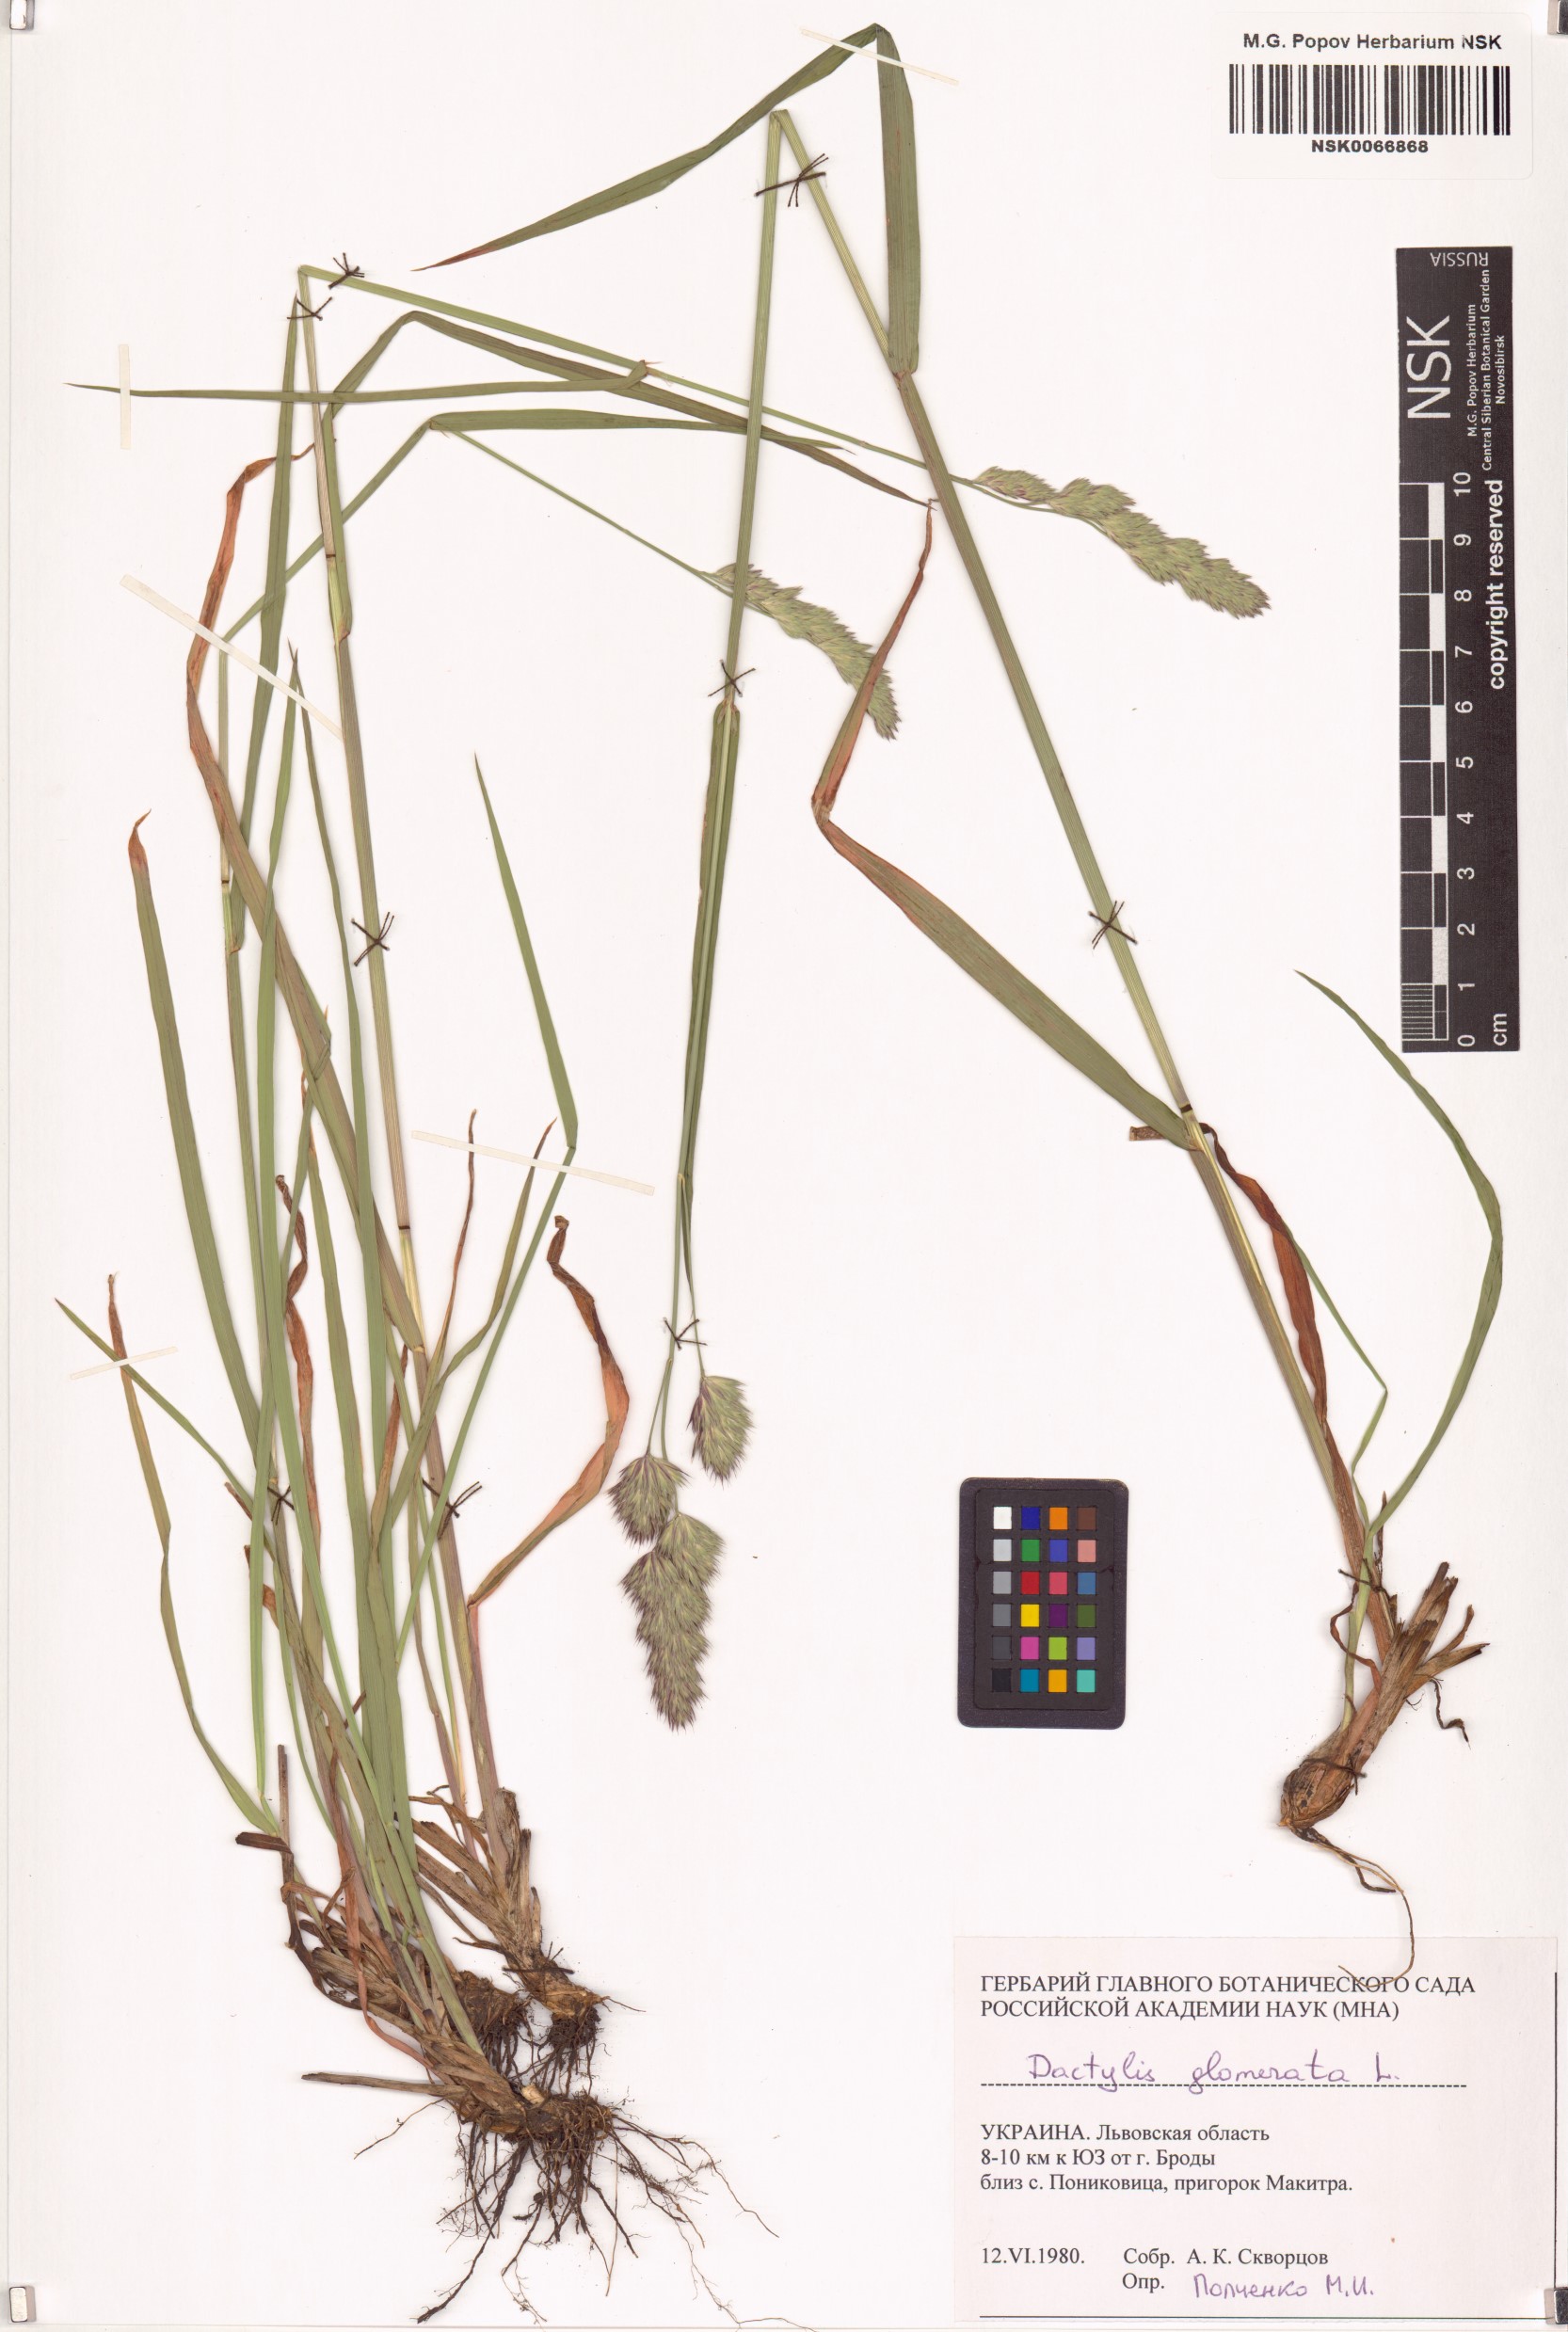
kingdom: Plantae
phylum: Tracheophyta
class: Liliopsida
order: Poales
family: Poaceae
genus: Dactylis
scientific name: Dactylis glomerata
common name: Orchardgrass
